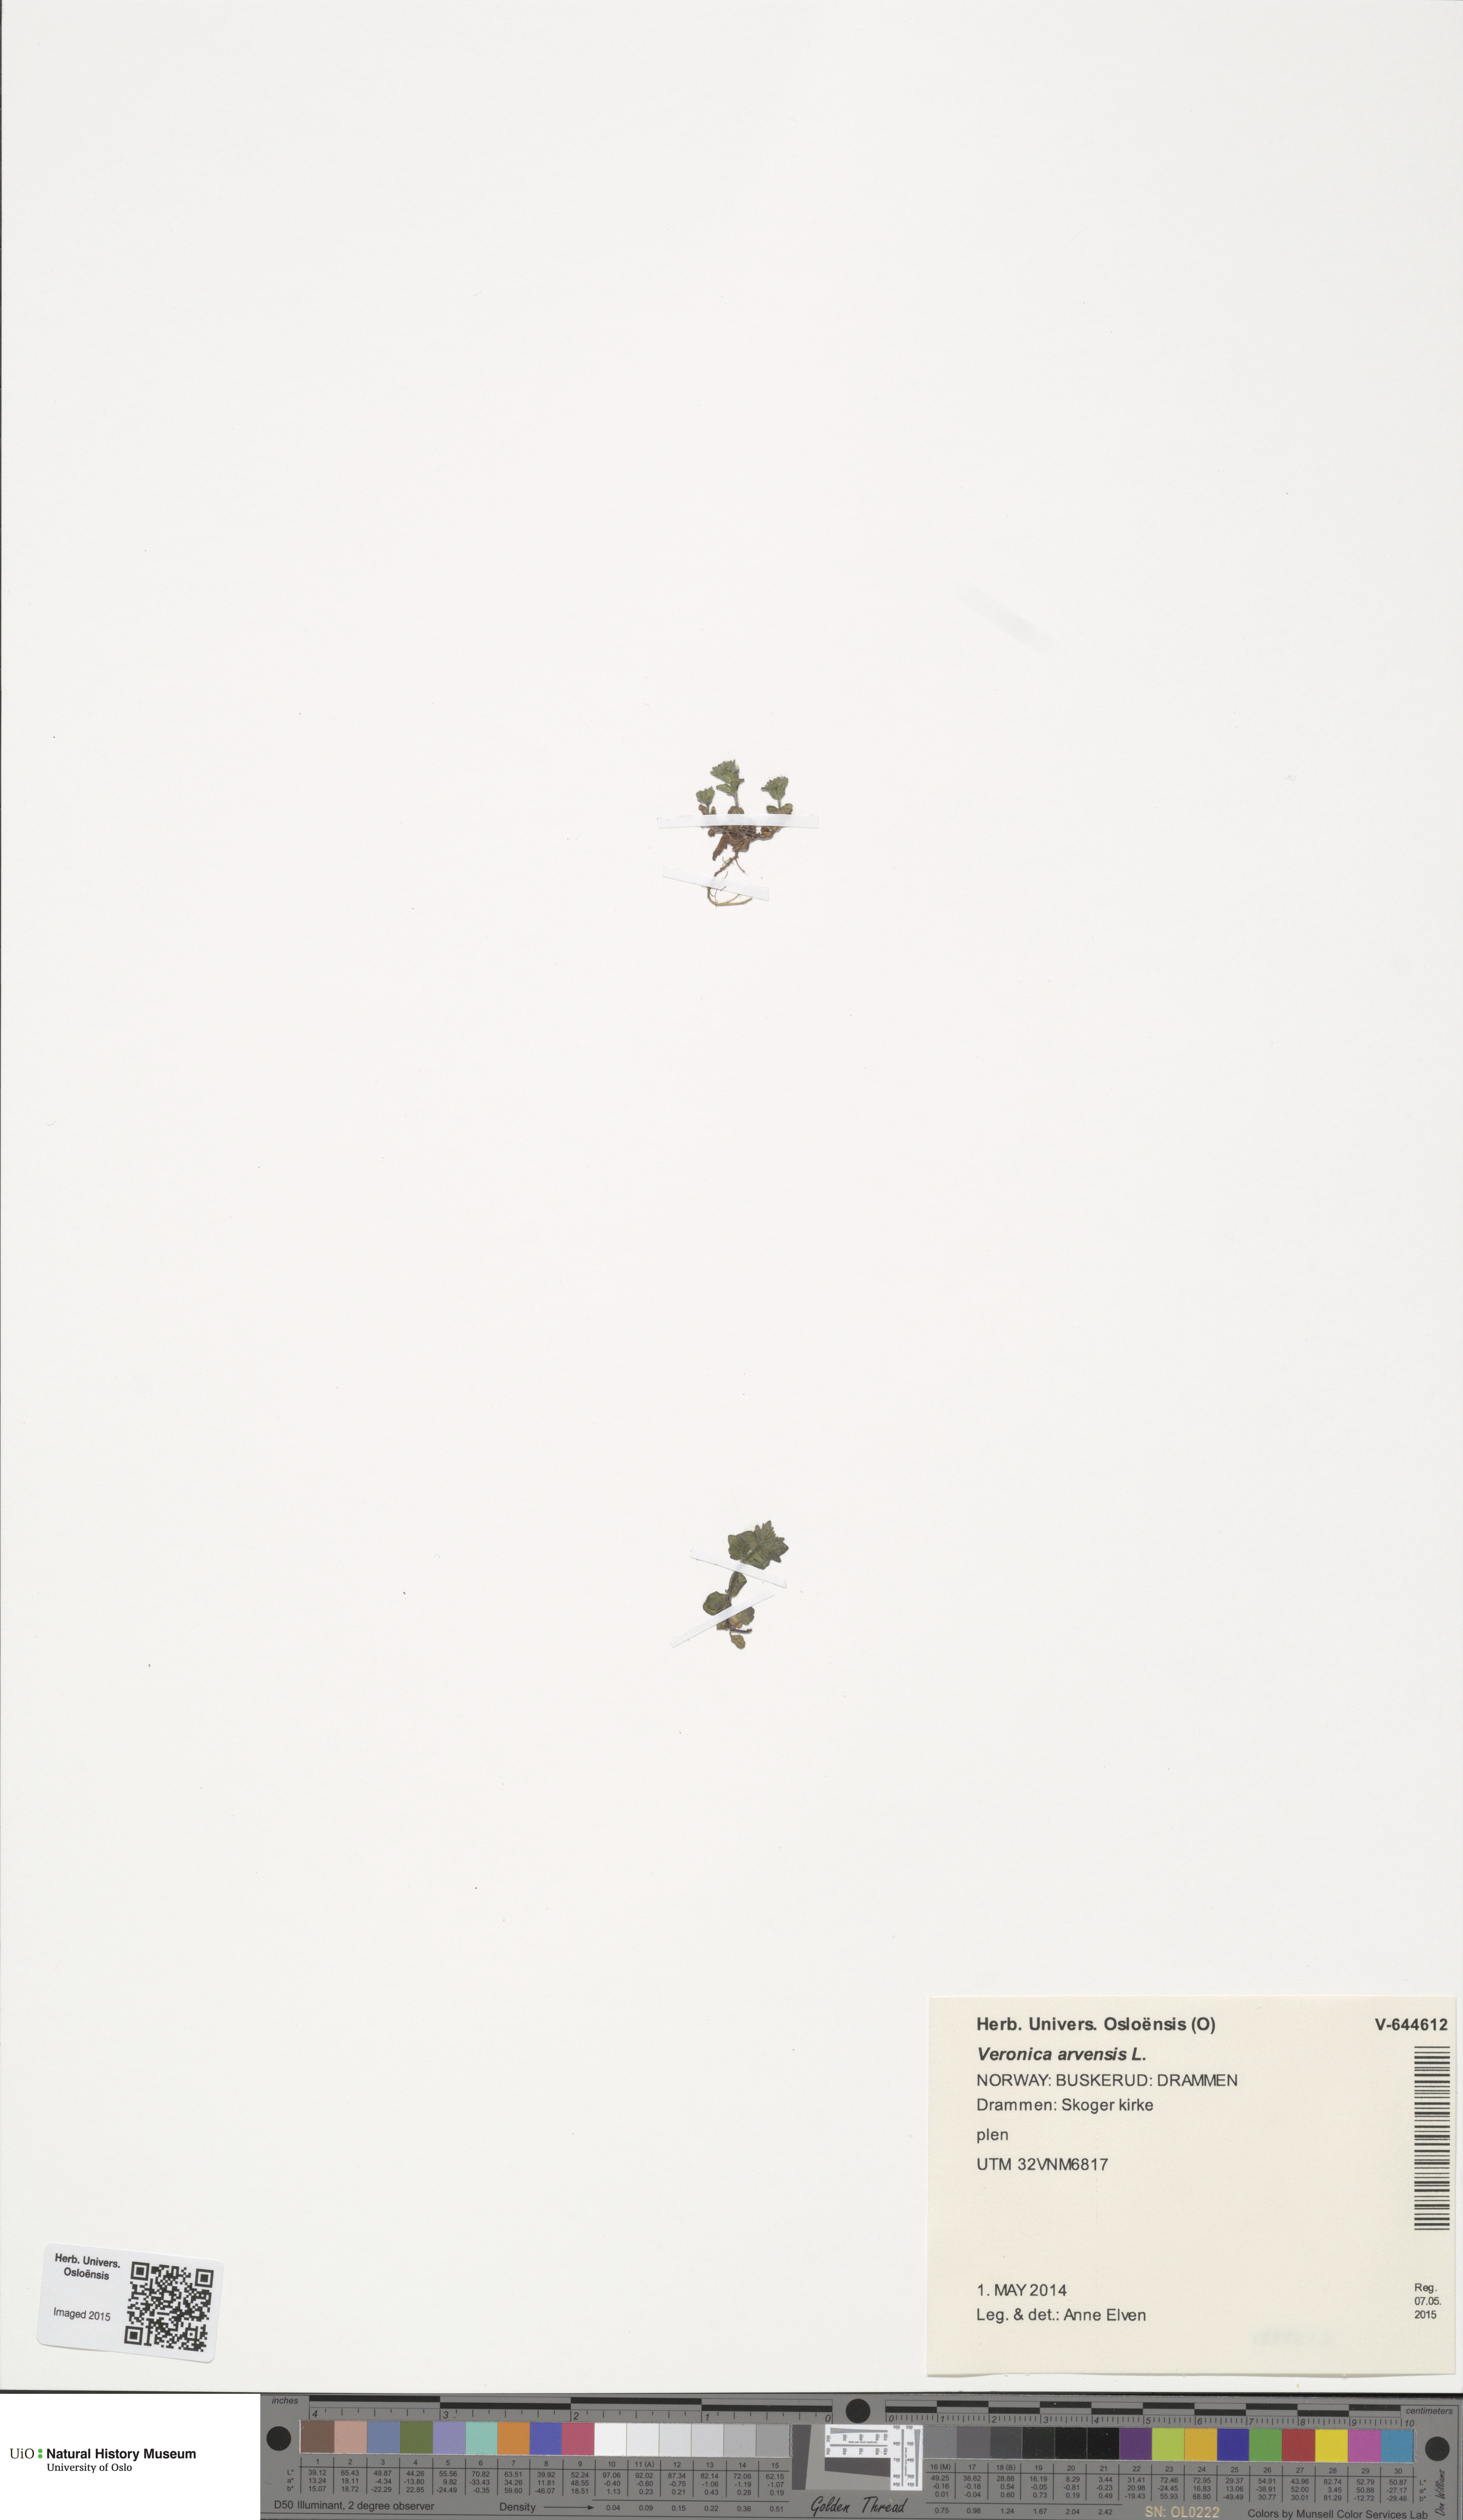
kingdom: Plantae
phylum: Tracheophyta
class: Magnoliopsida
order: Lamiales
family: Plantaginaceae
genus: Veronica
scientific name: Veronica arvensis
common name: Corn speedwell
